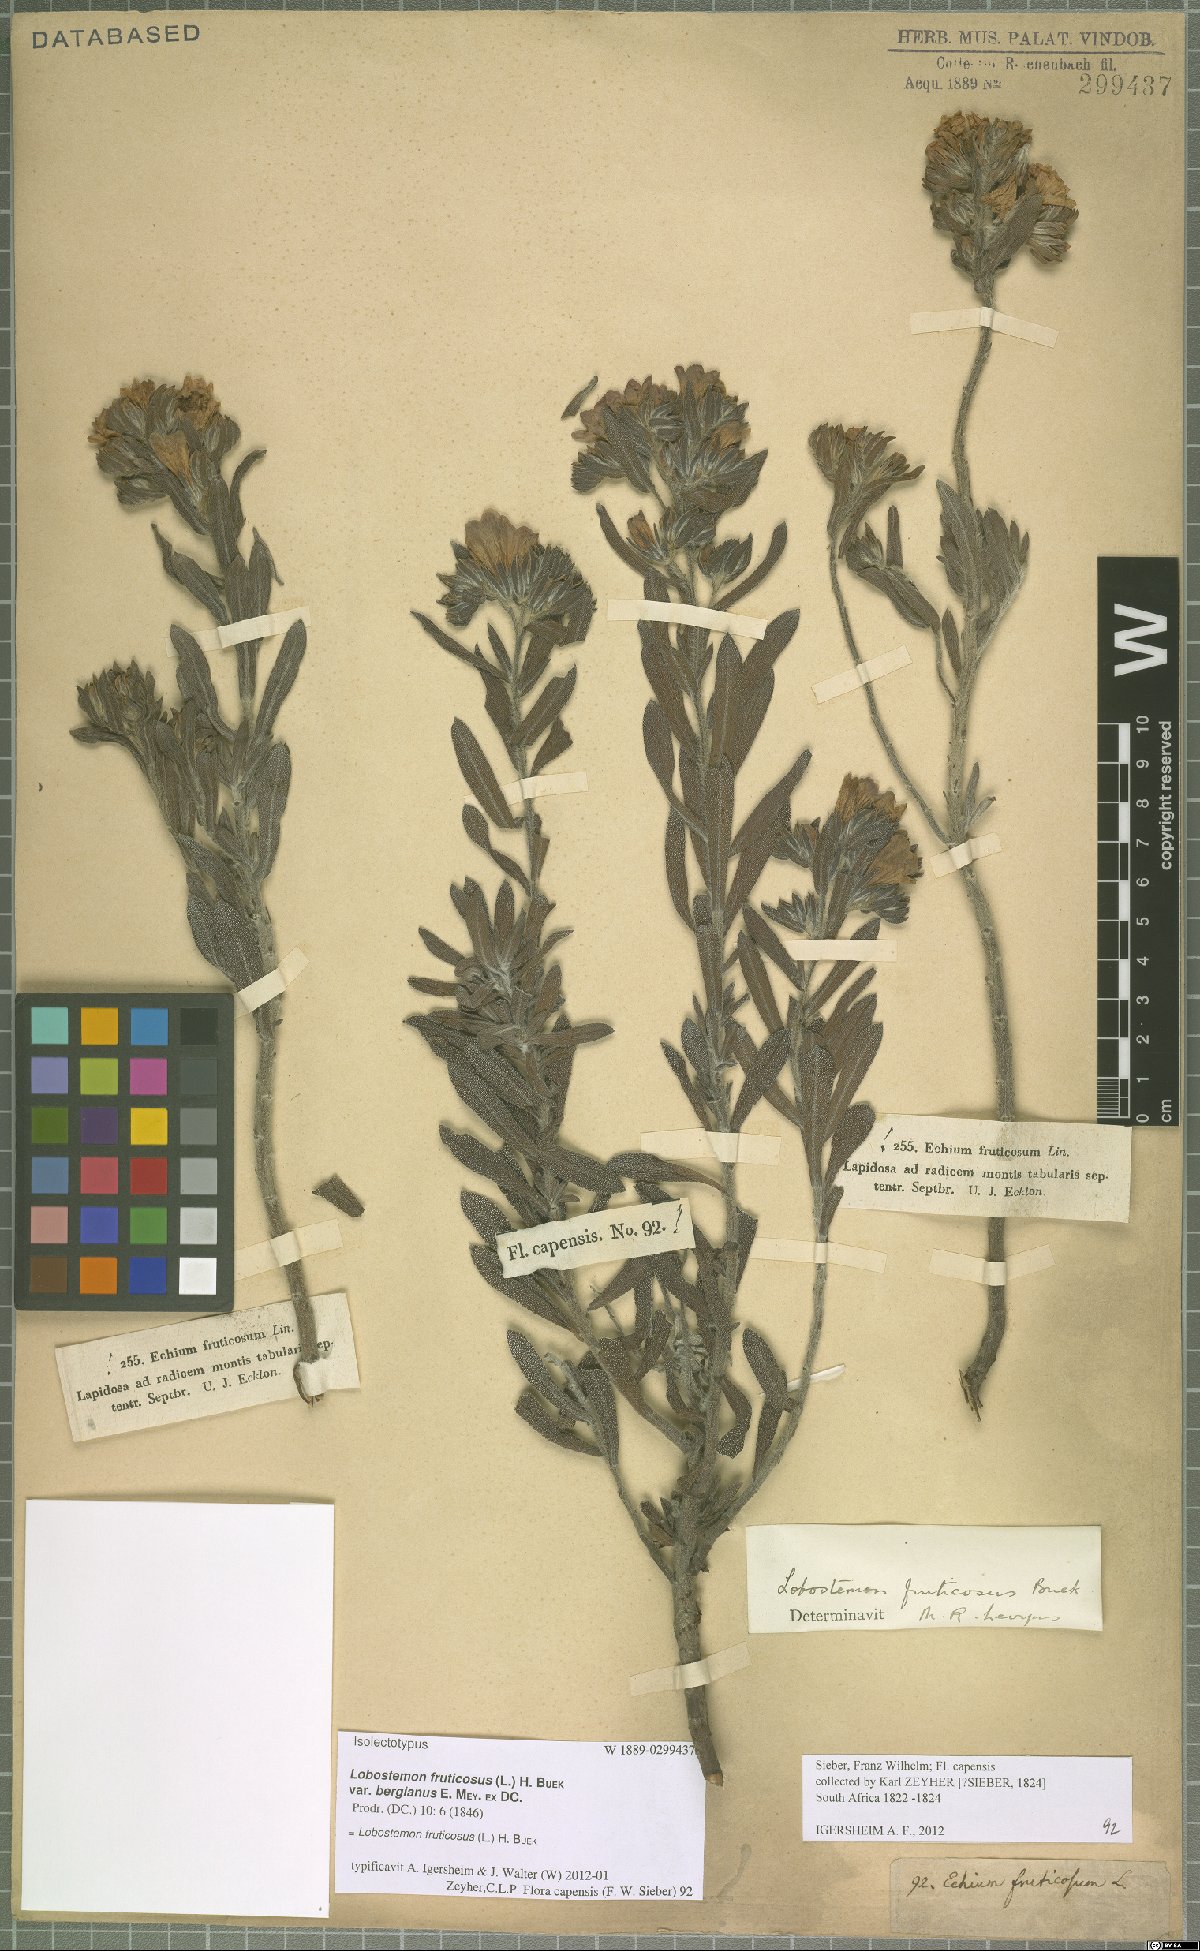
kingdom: Plantae
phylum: Tracheophyta
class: Magnoliopsida
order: Boraginales
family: Boraginaceae
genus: Lobostemon
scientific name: Lobostemon fruticosus
